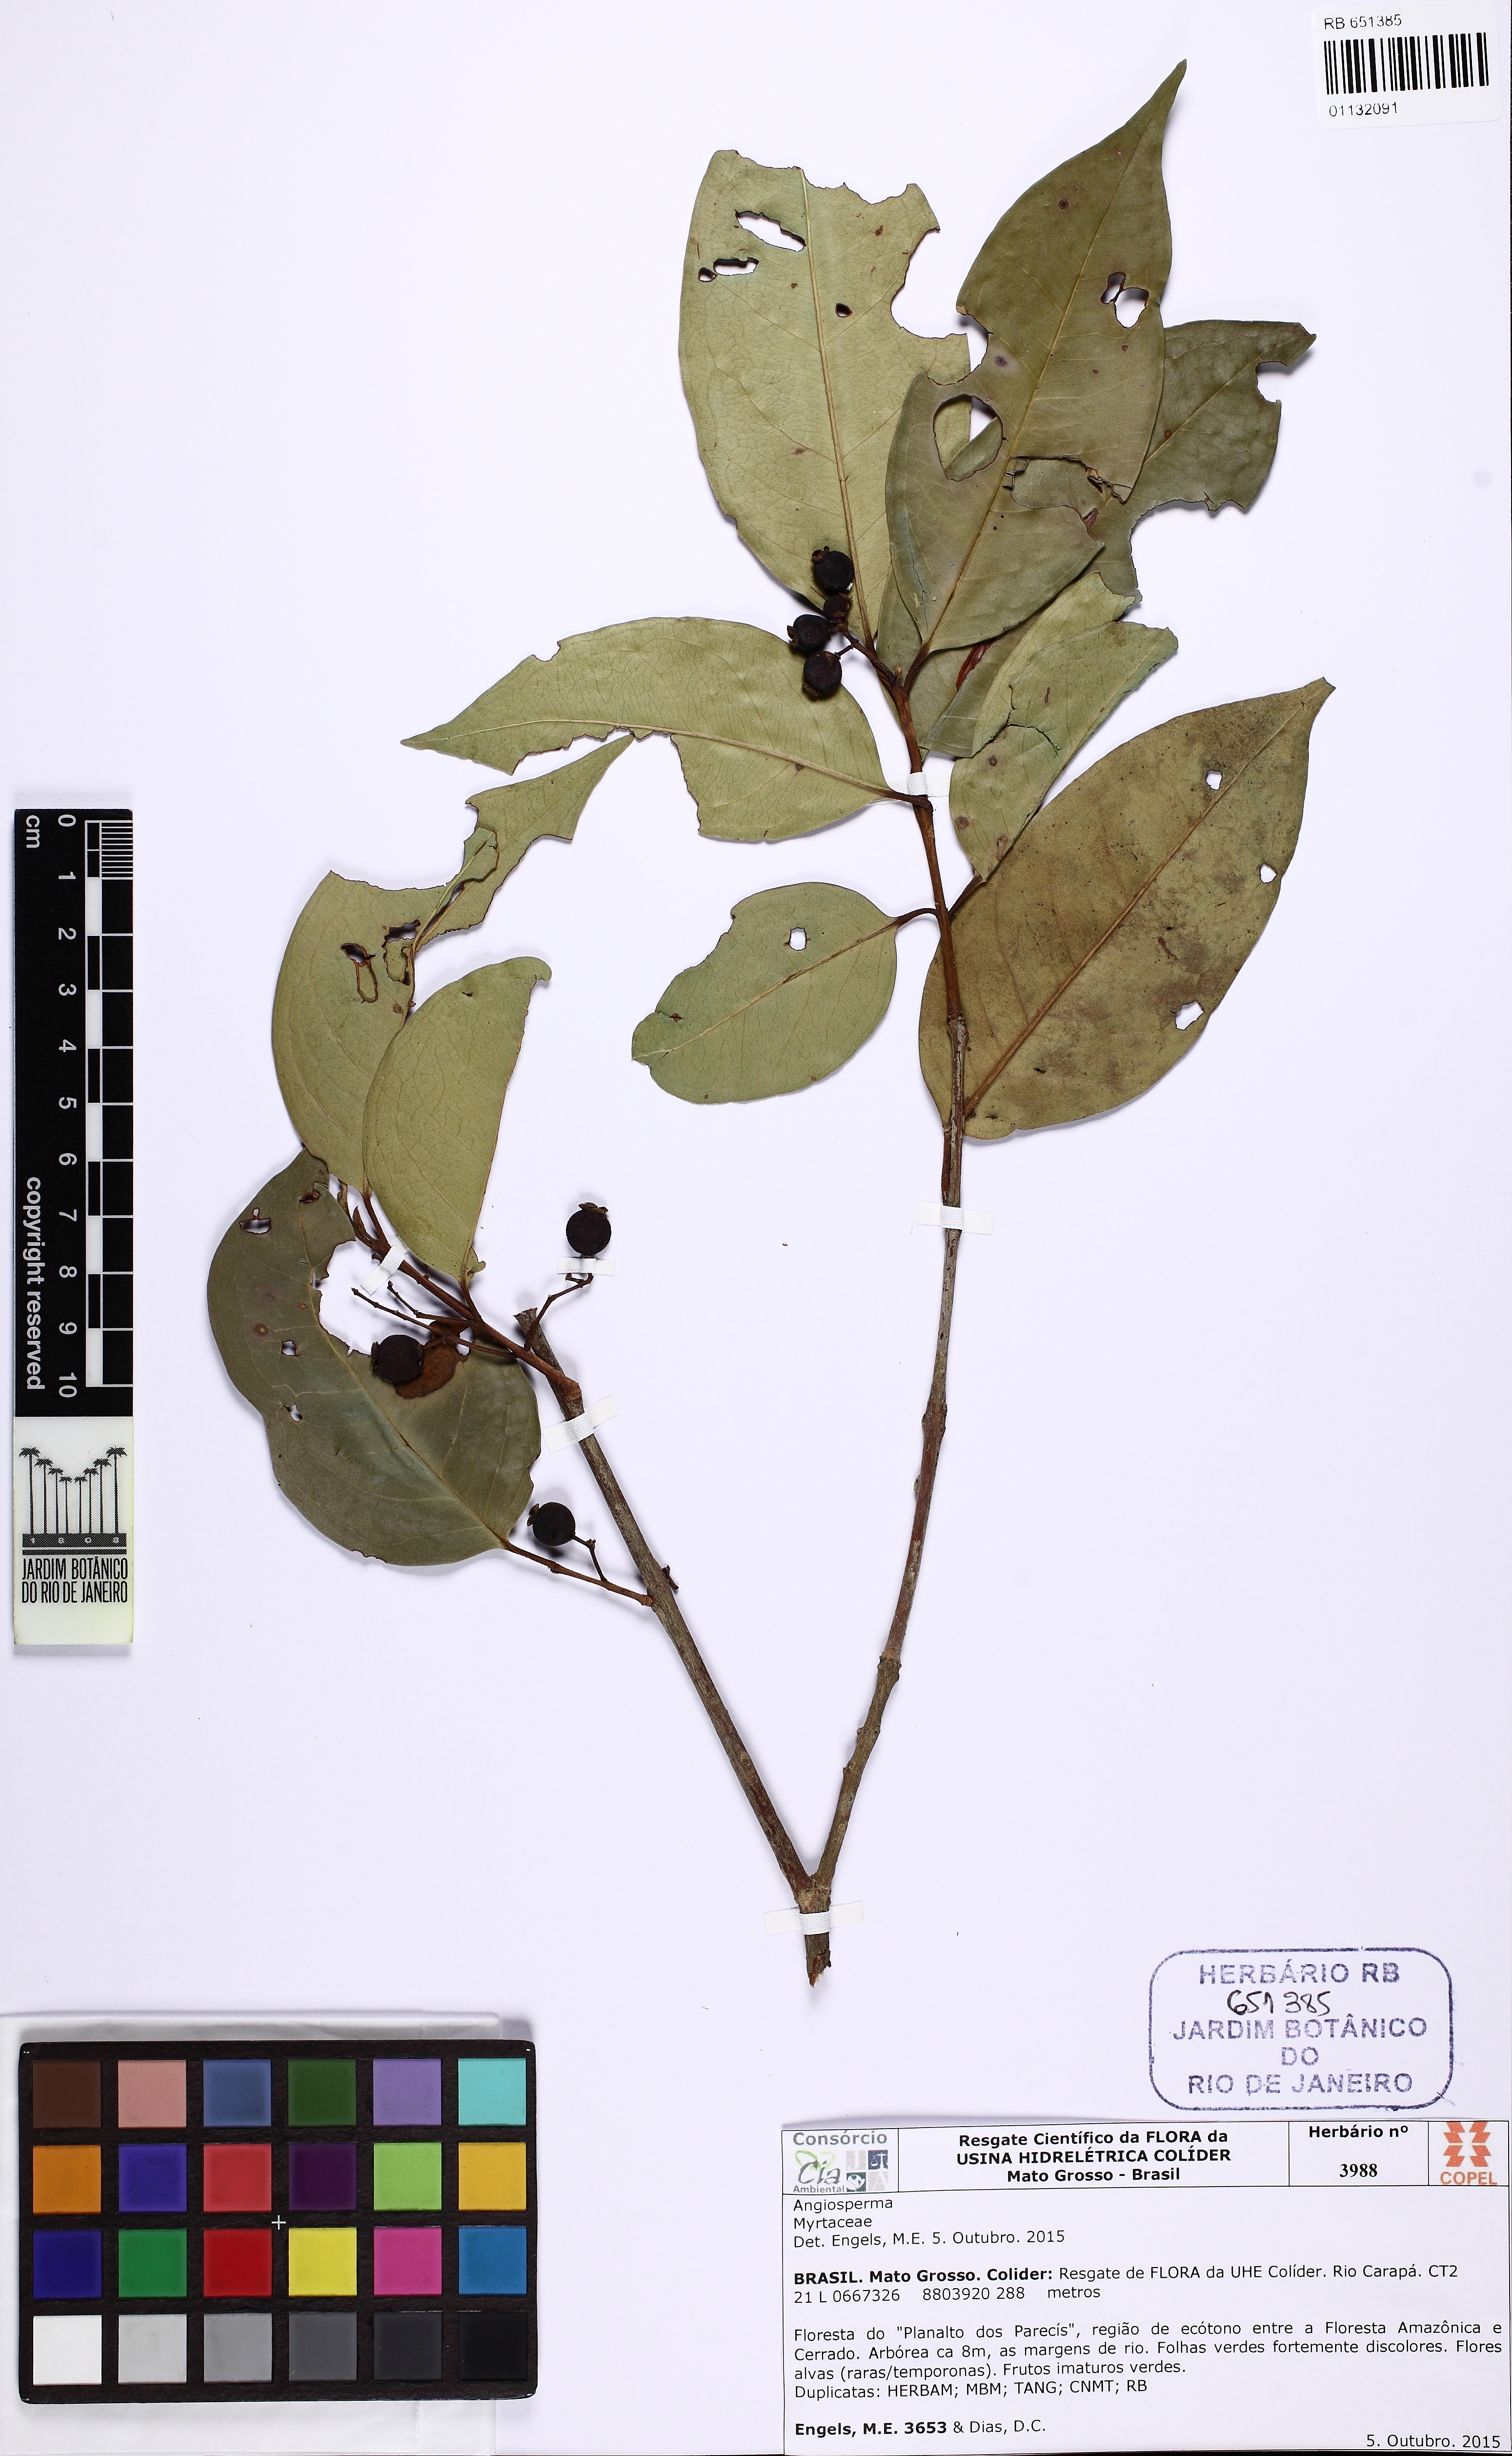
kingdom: Plantae
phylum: Tracheophyta
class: Magnoliopsida
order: Myrtales
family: Myrtaceae
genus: Eugenia
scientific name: Eugenia florida
